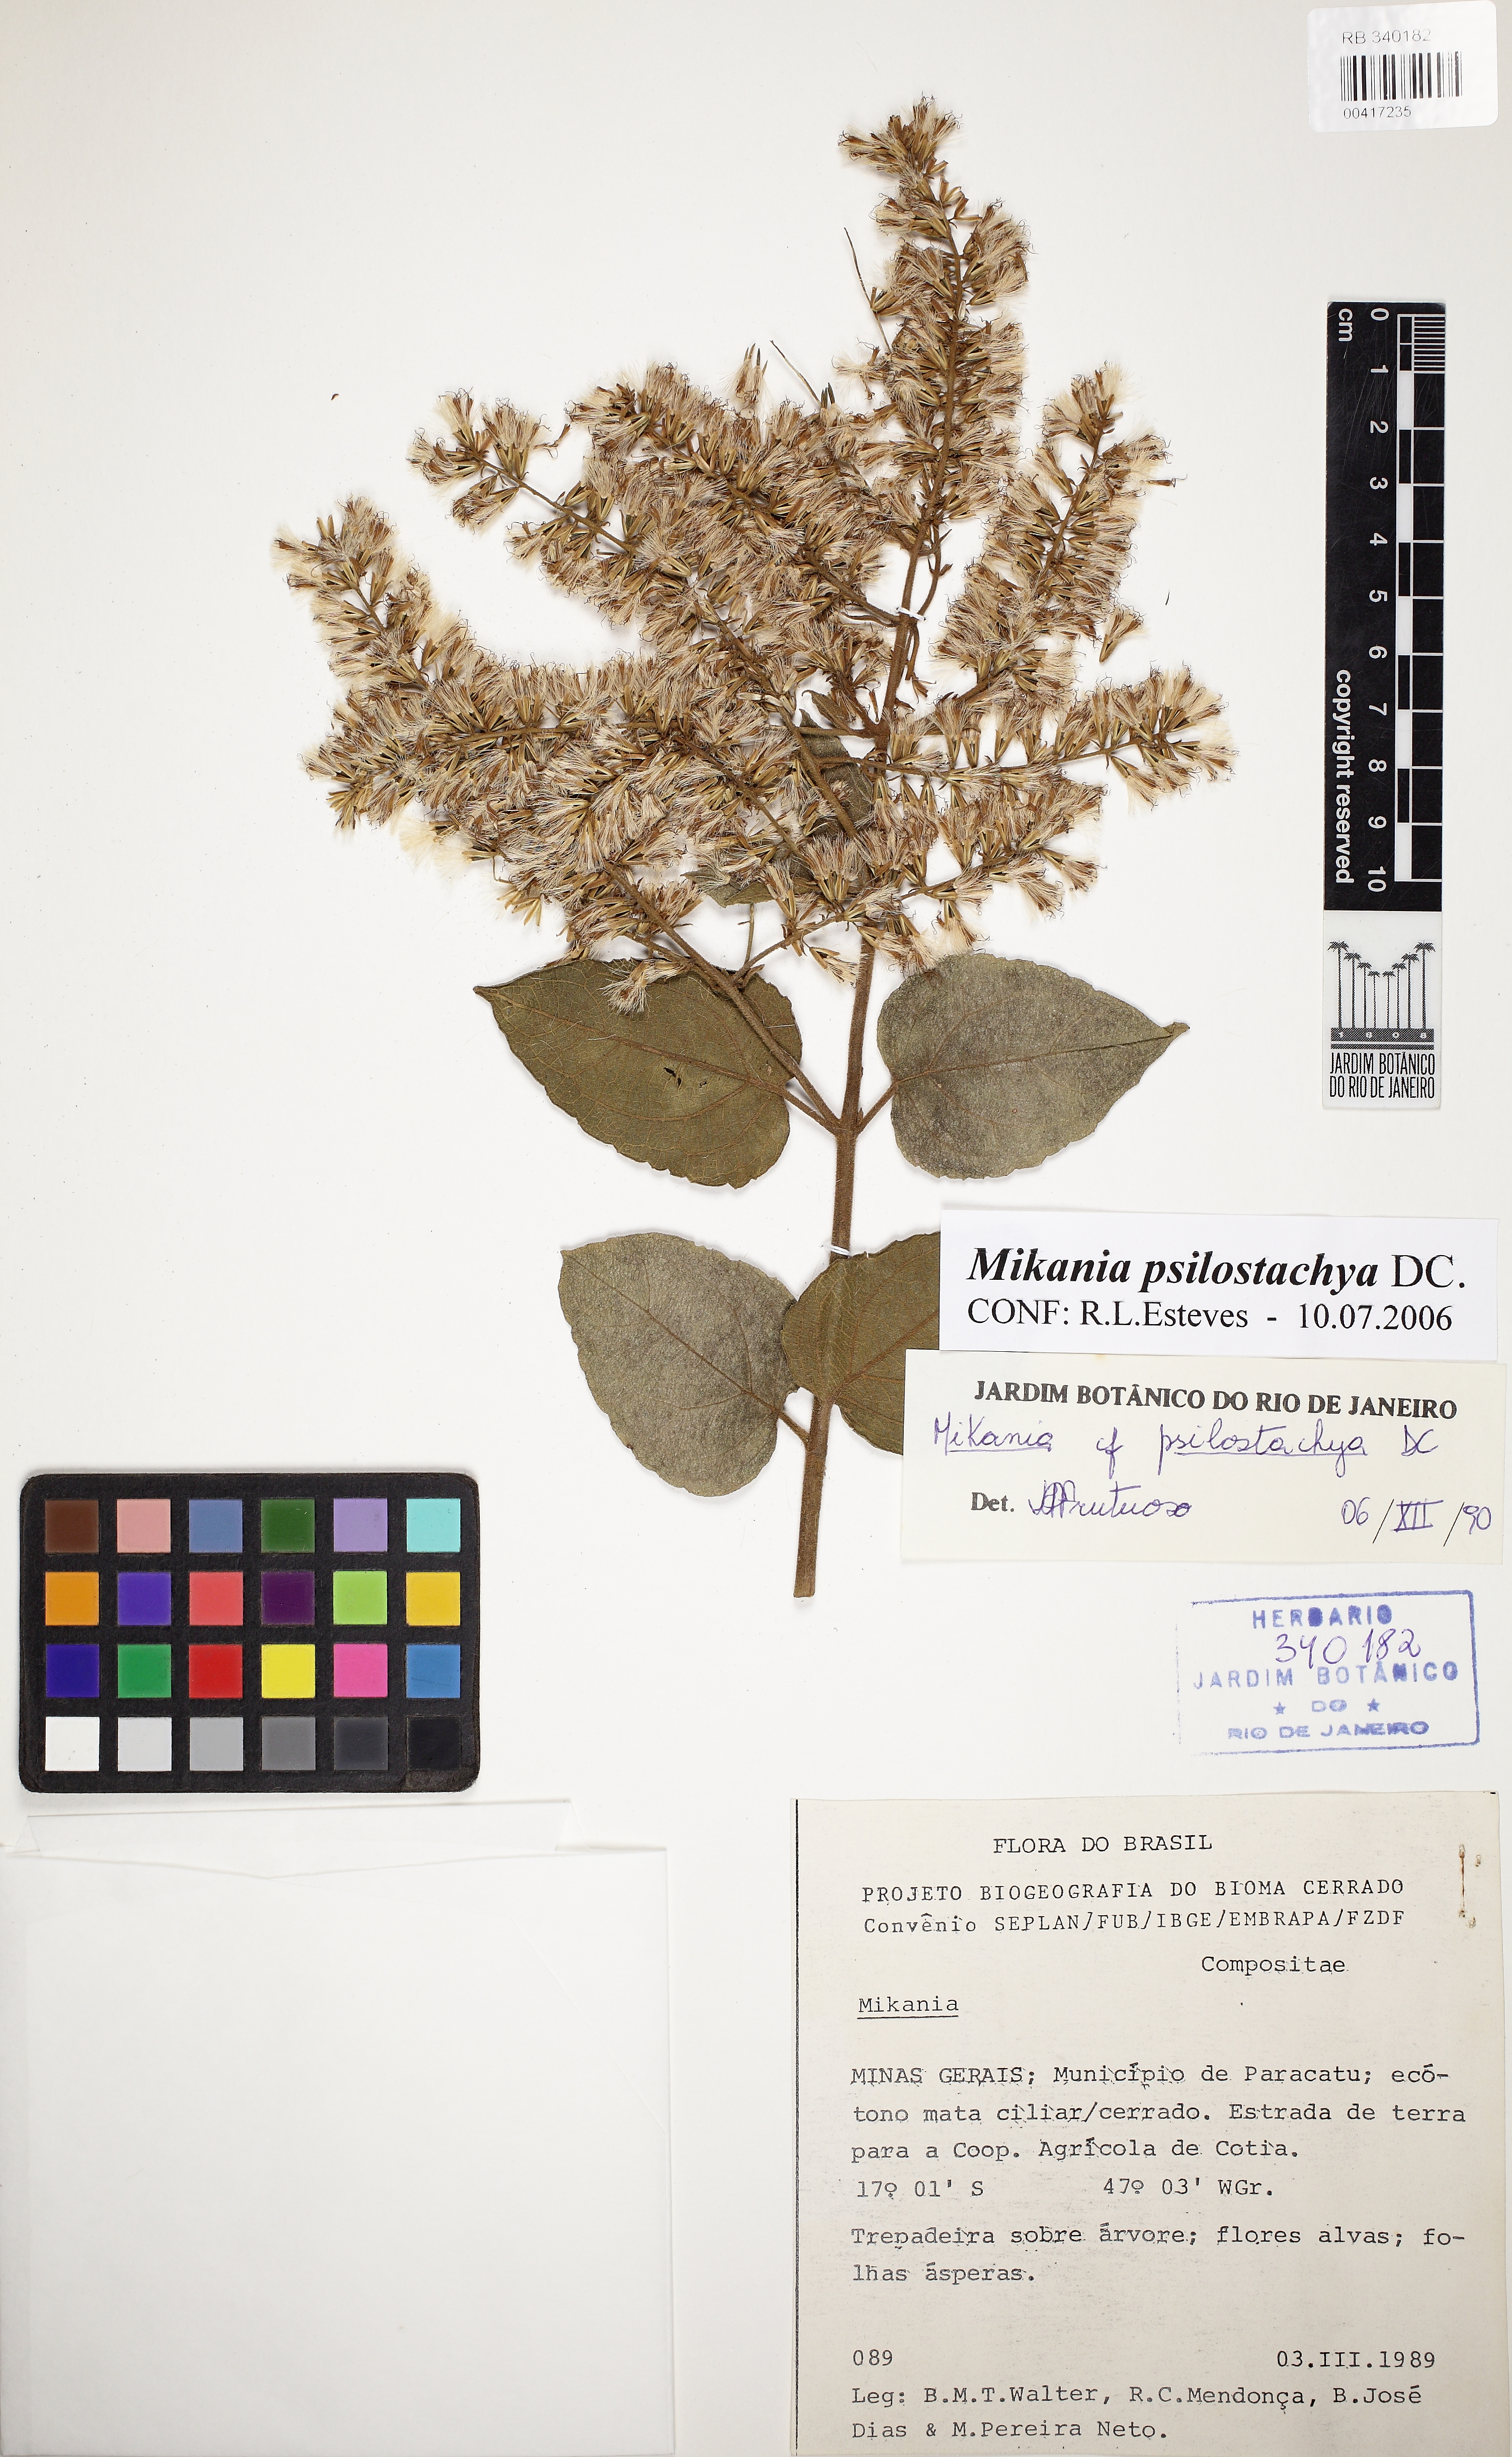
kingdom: Plantae
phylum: Tracheophyta
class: Magnoliopsida
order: Asterales
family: Asteraceae
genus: Mikania
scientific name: Mikania psilostachya
